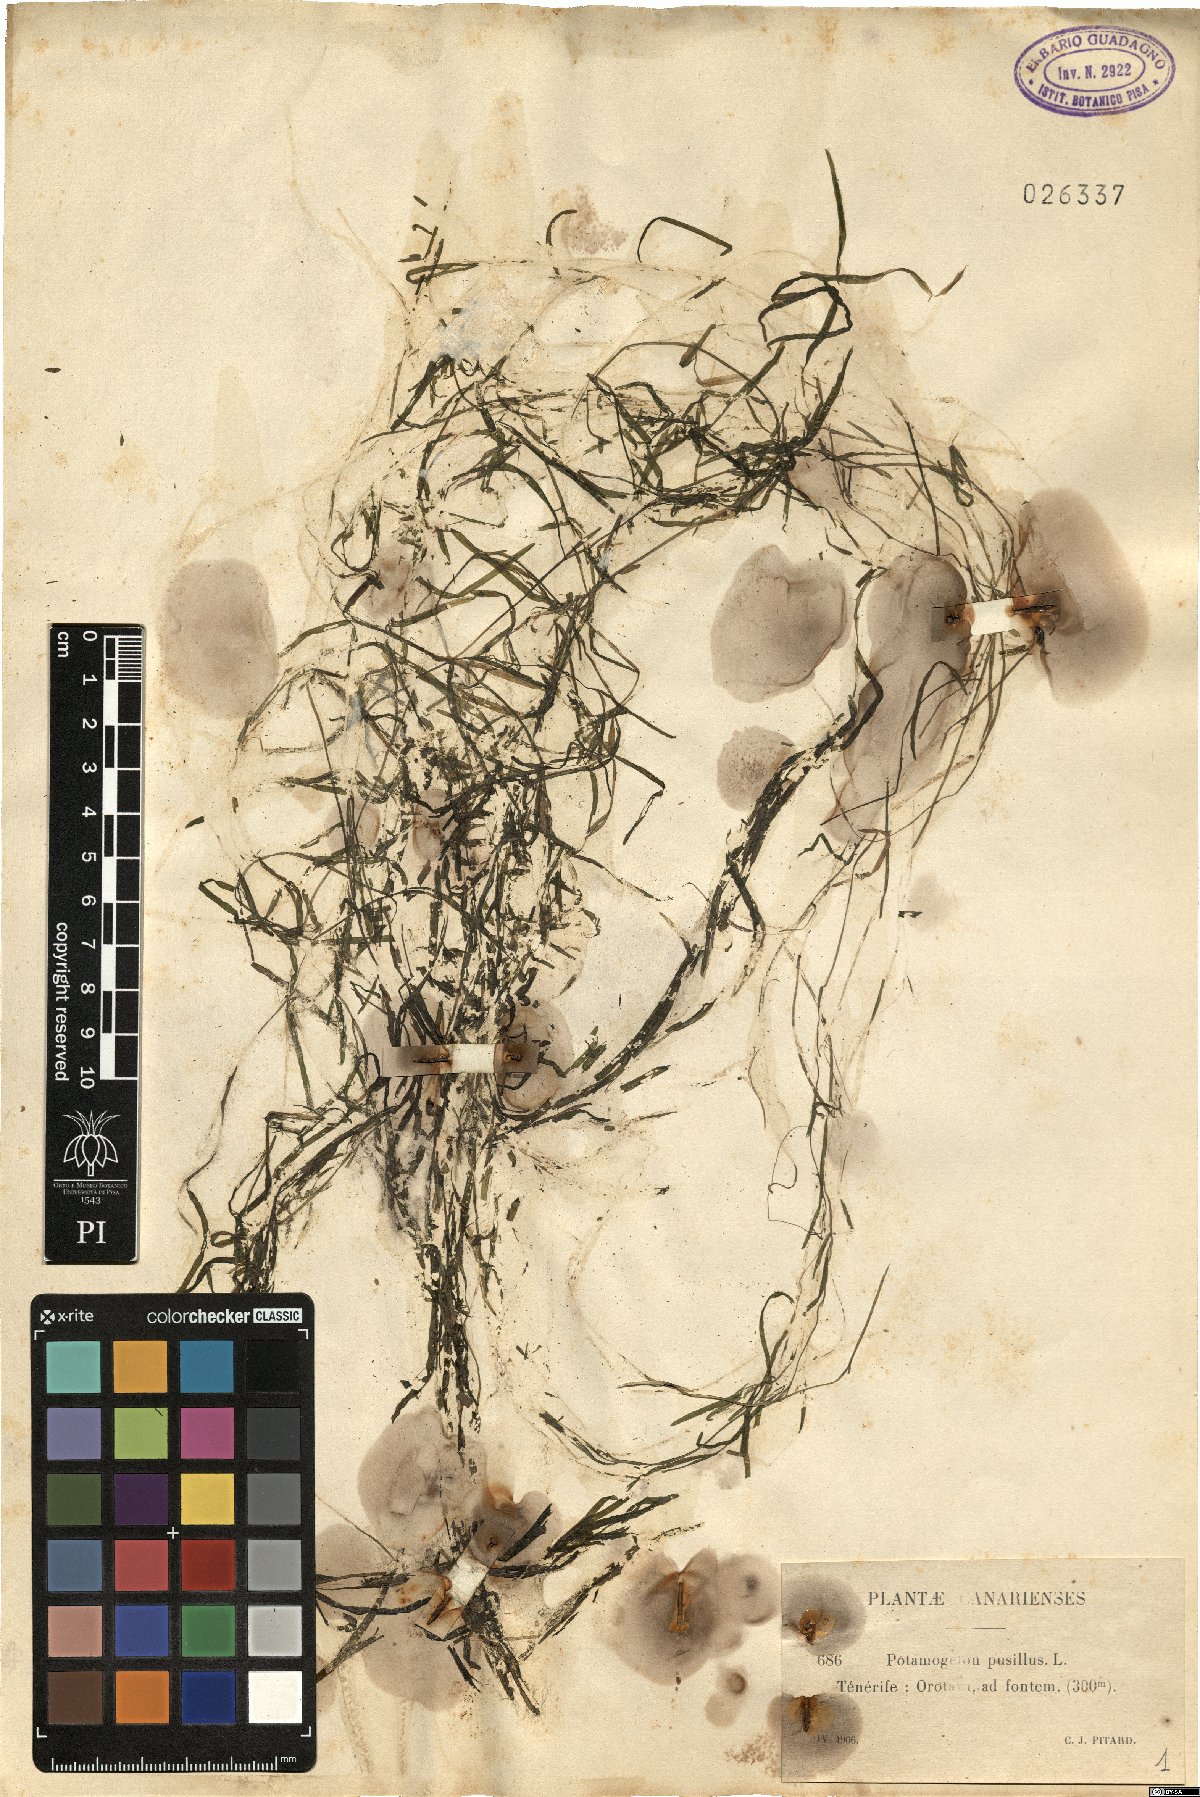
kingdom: Plantae
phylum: Tracheophyta
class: Liliopsida
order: Alismatales
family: Potamogetonaceae
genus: Potamogeton
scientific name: Potamogeton pusillus
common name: Lesser pondweed
